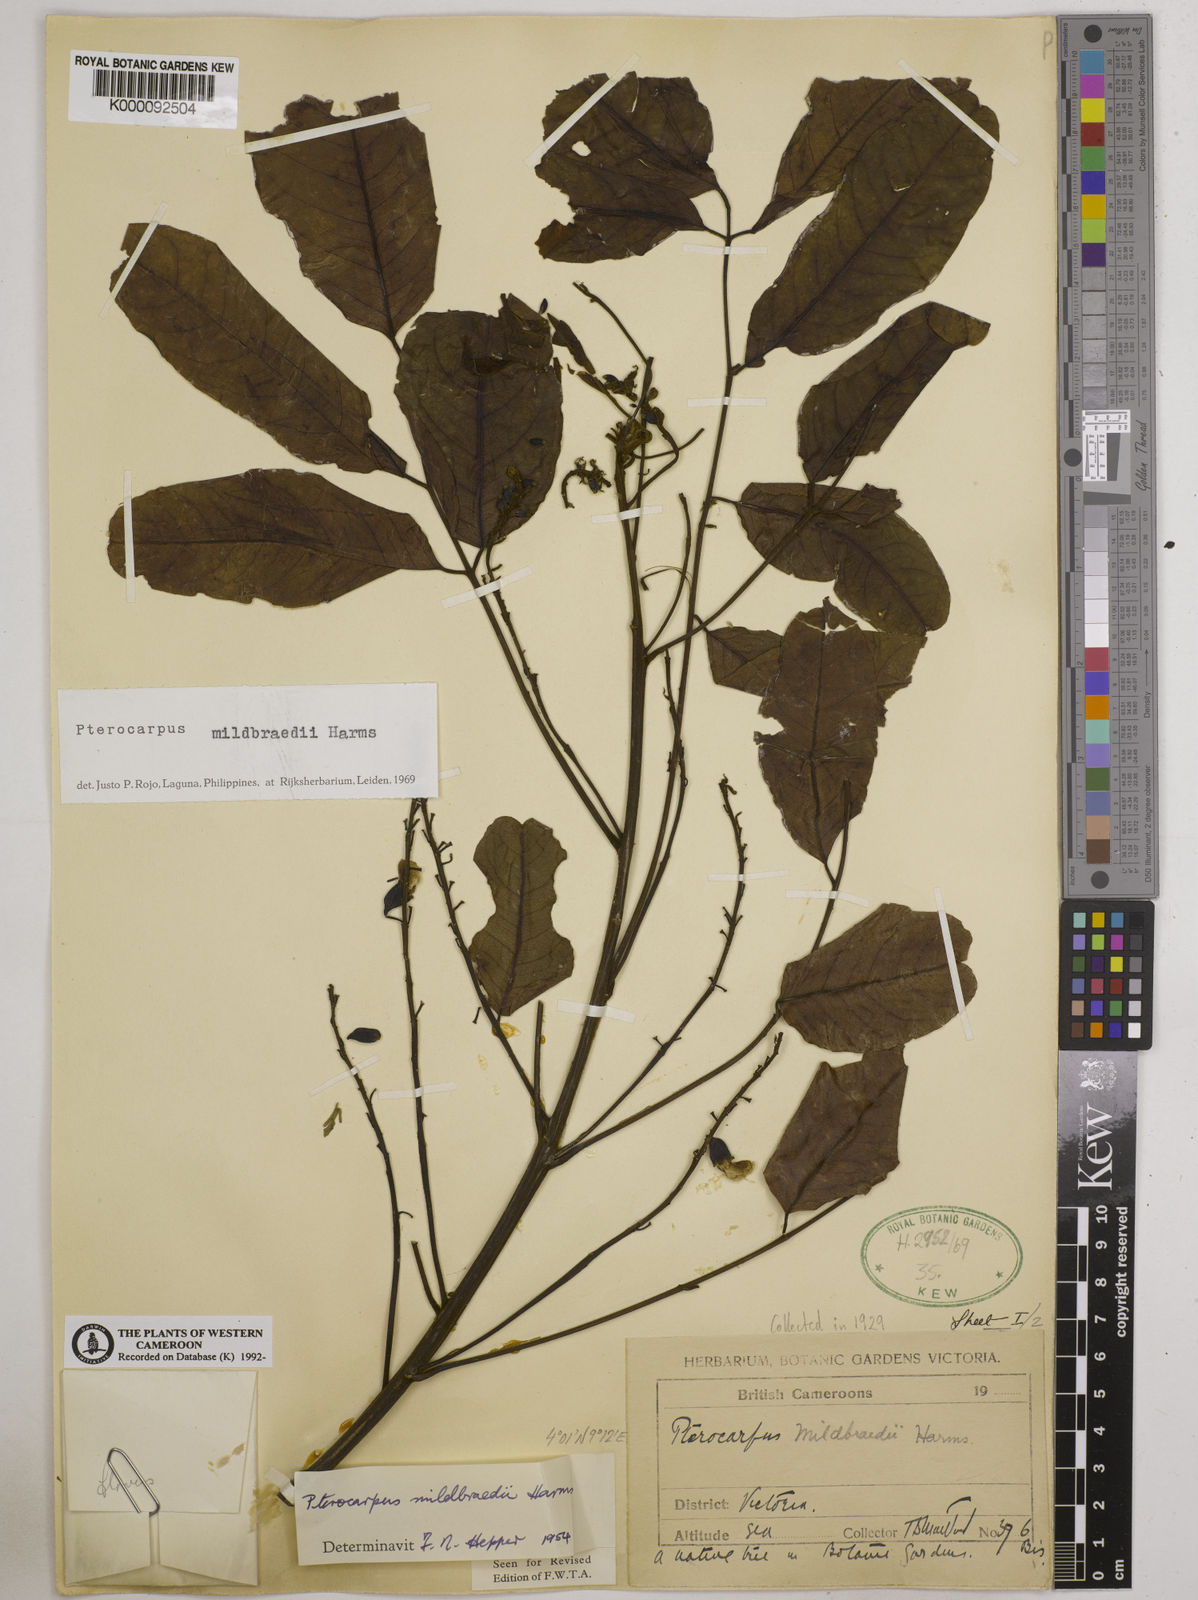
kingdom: Plantae
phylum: Tracheophyta
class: Magnoliopsida
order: Solanales
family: Convolvulaceae
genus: Lepistemon
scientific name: Lepistemon
